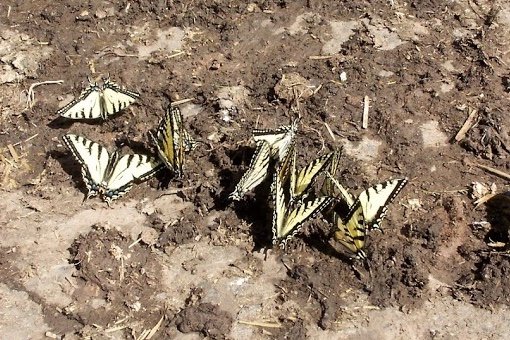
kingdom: Animalia
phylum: Arthropoda
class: Insecta
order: Lepidoptera
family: Papilionidae
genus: Pterourus
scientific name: Pterourus canadensis
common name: Canadian Tiger Swallowtail
